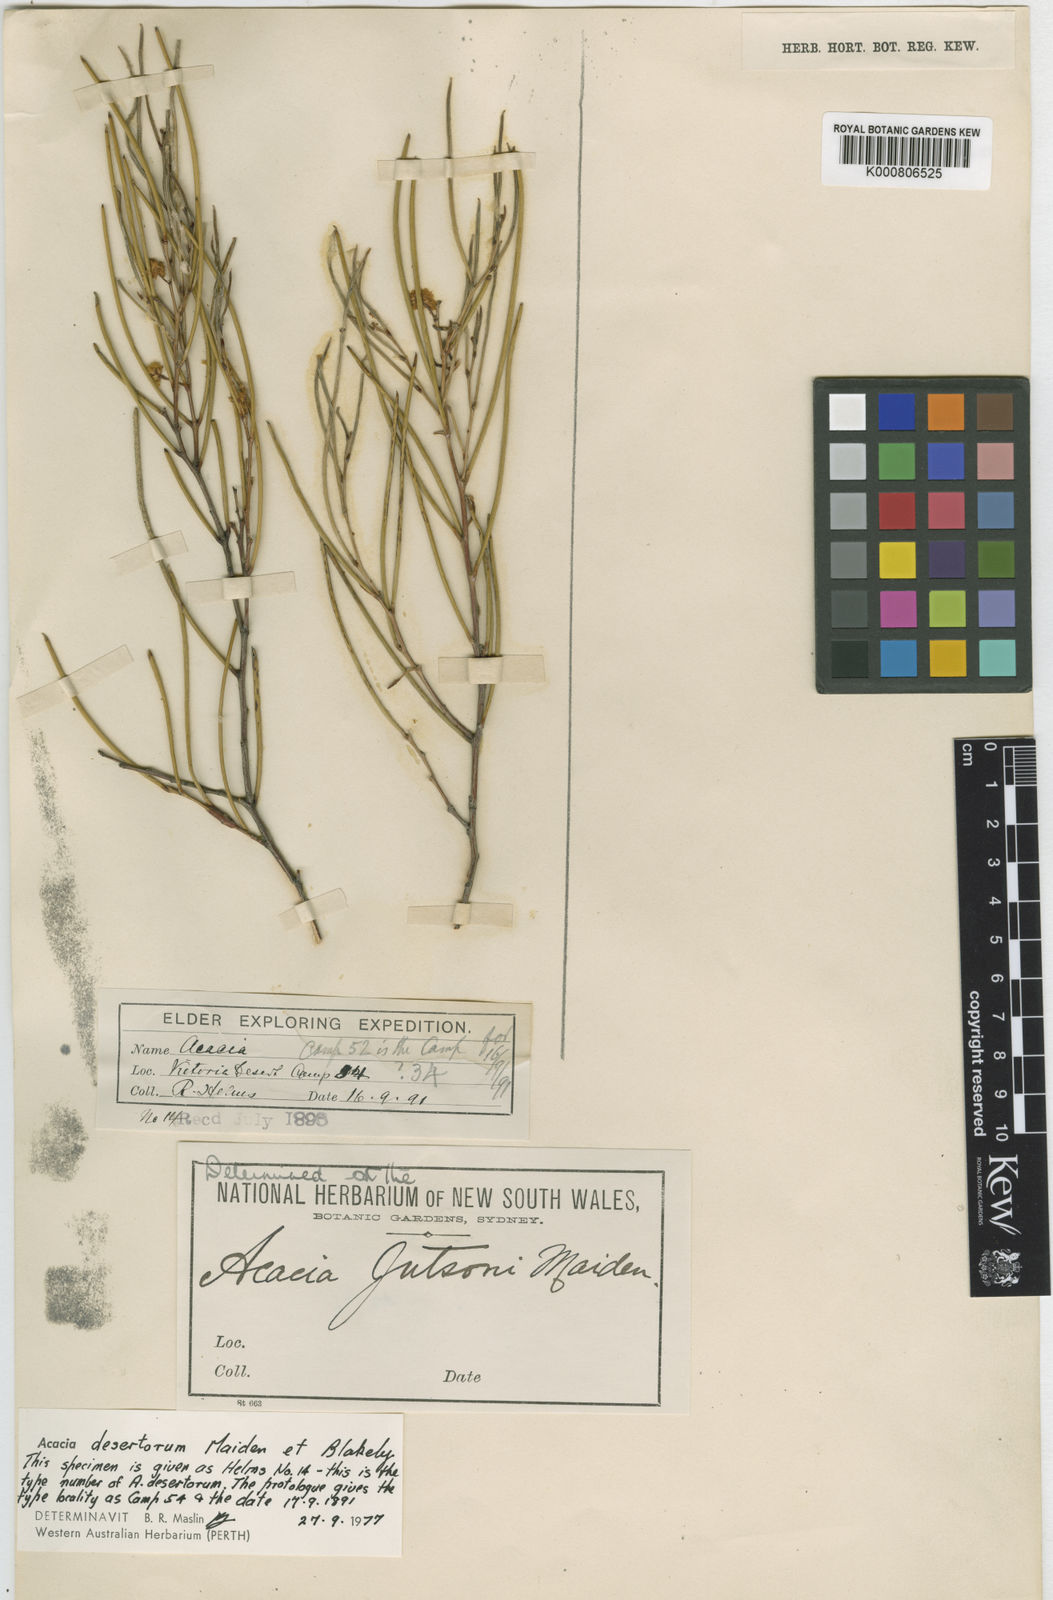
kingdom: Plantae
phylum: Tracheophyta
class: Magnoliopsida
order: Fabales
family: Fabaceae
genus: Acacia
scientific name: Acacia desertorum
